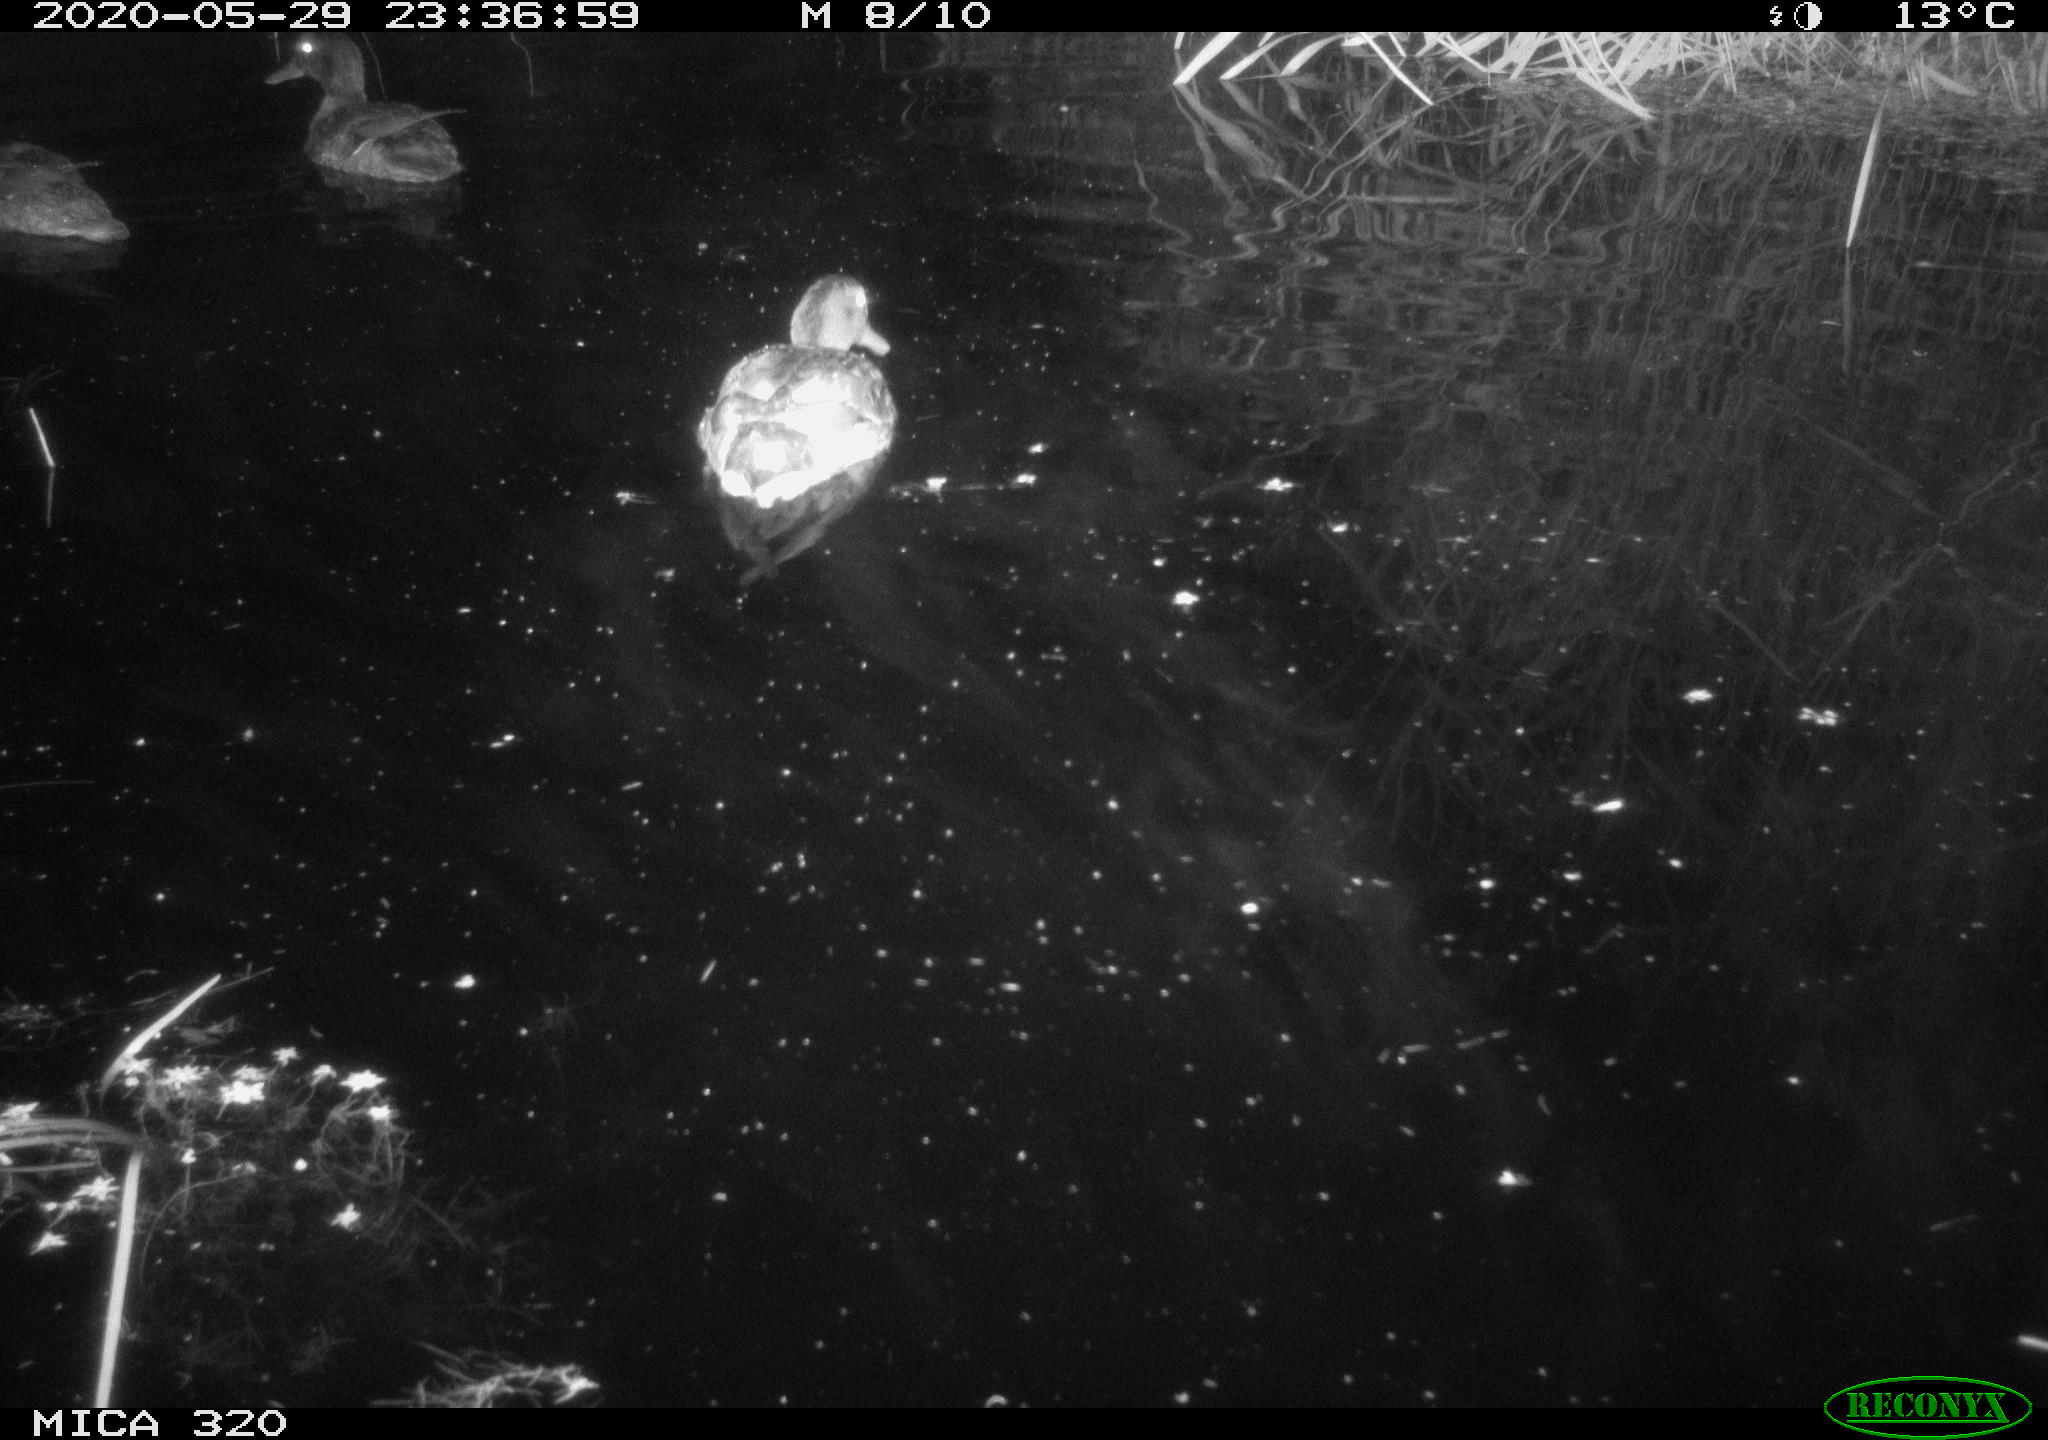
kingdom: Animalia
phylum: Chordata
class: Aves
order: Anseriformes
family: Anatidae
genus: Anas
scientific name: Anas platyrhynchos
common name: Mallard
